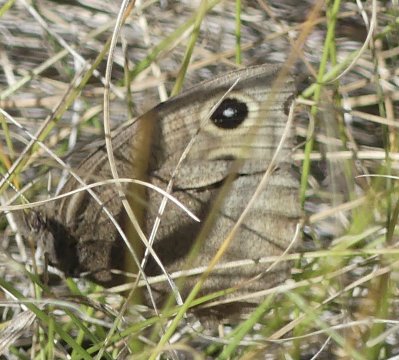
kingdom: Animalia
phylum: Arthropoda
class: Insecta
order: Lepidoptera
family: Nymphalidae
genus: Cercyonis
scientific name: Cercyonis pegala
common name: Common Wood-Nymph
